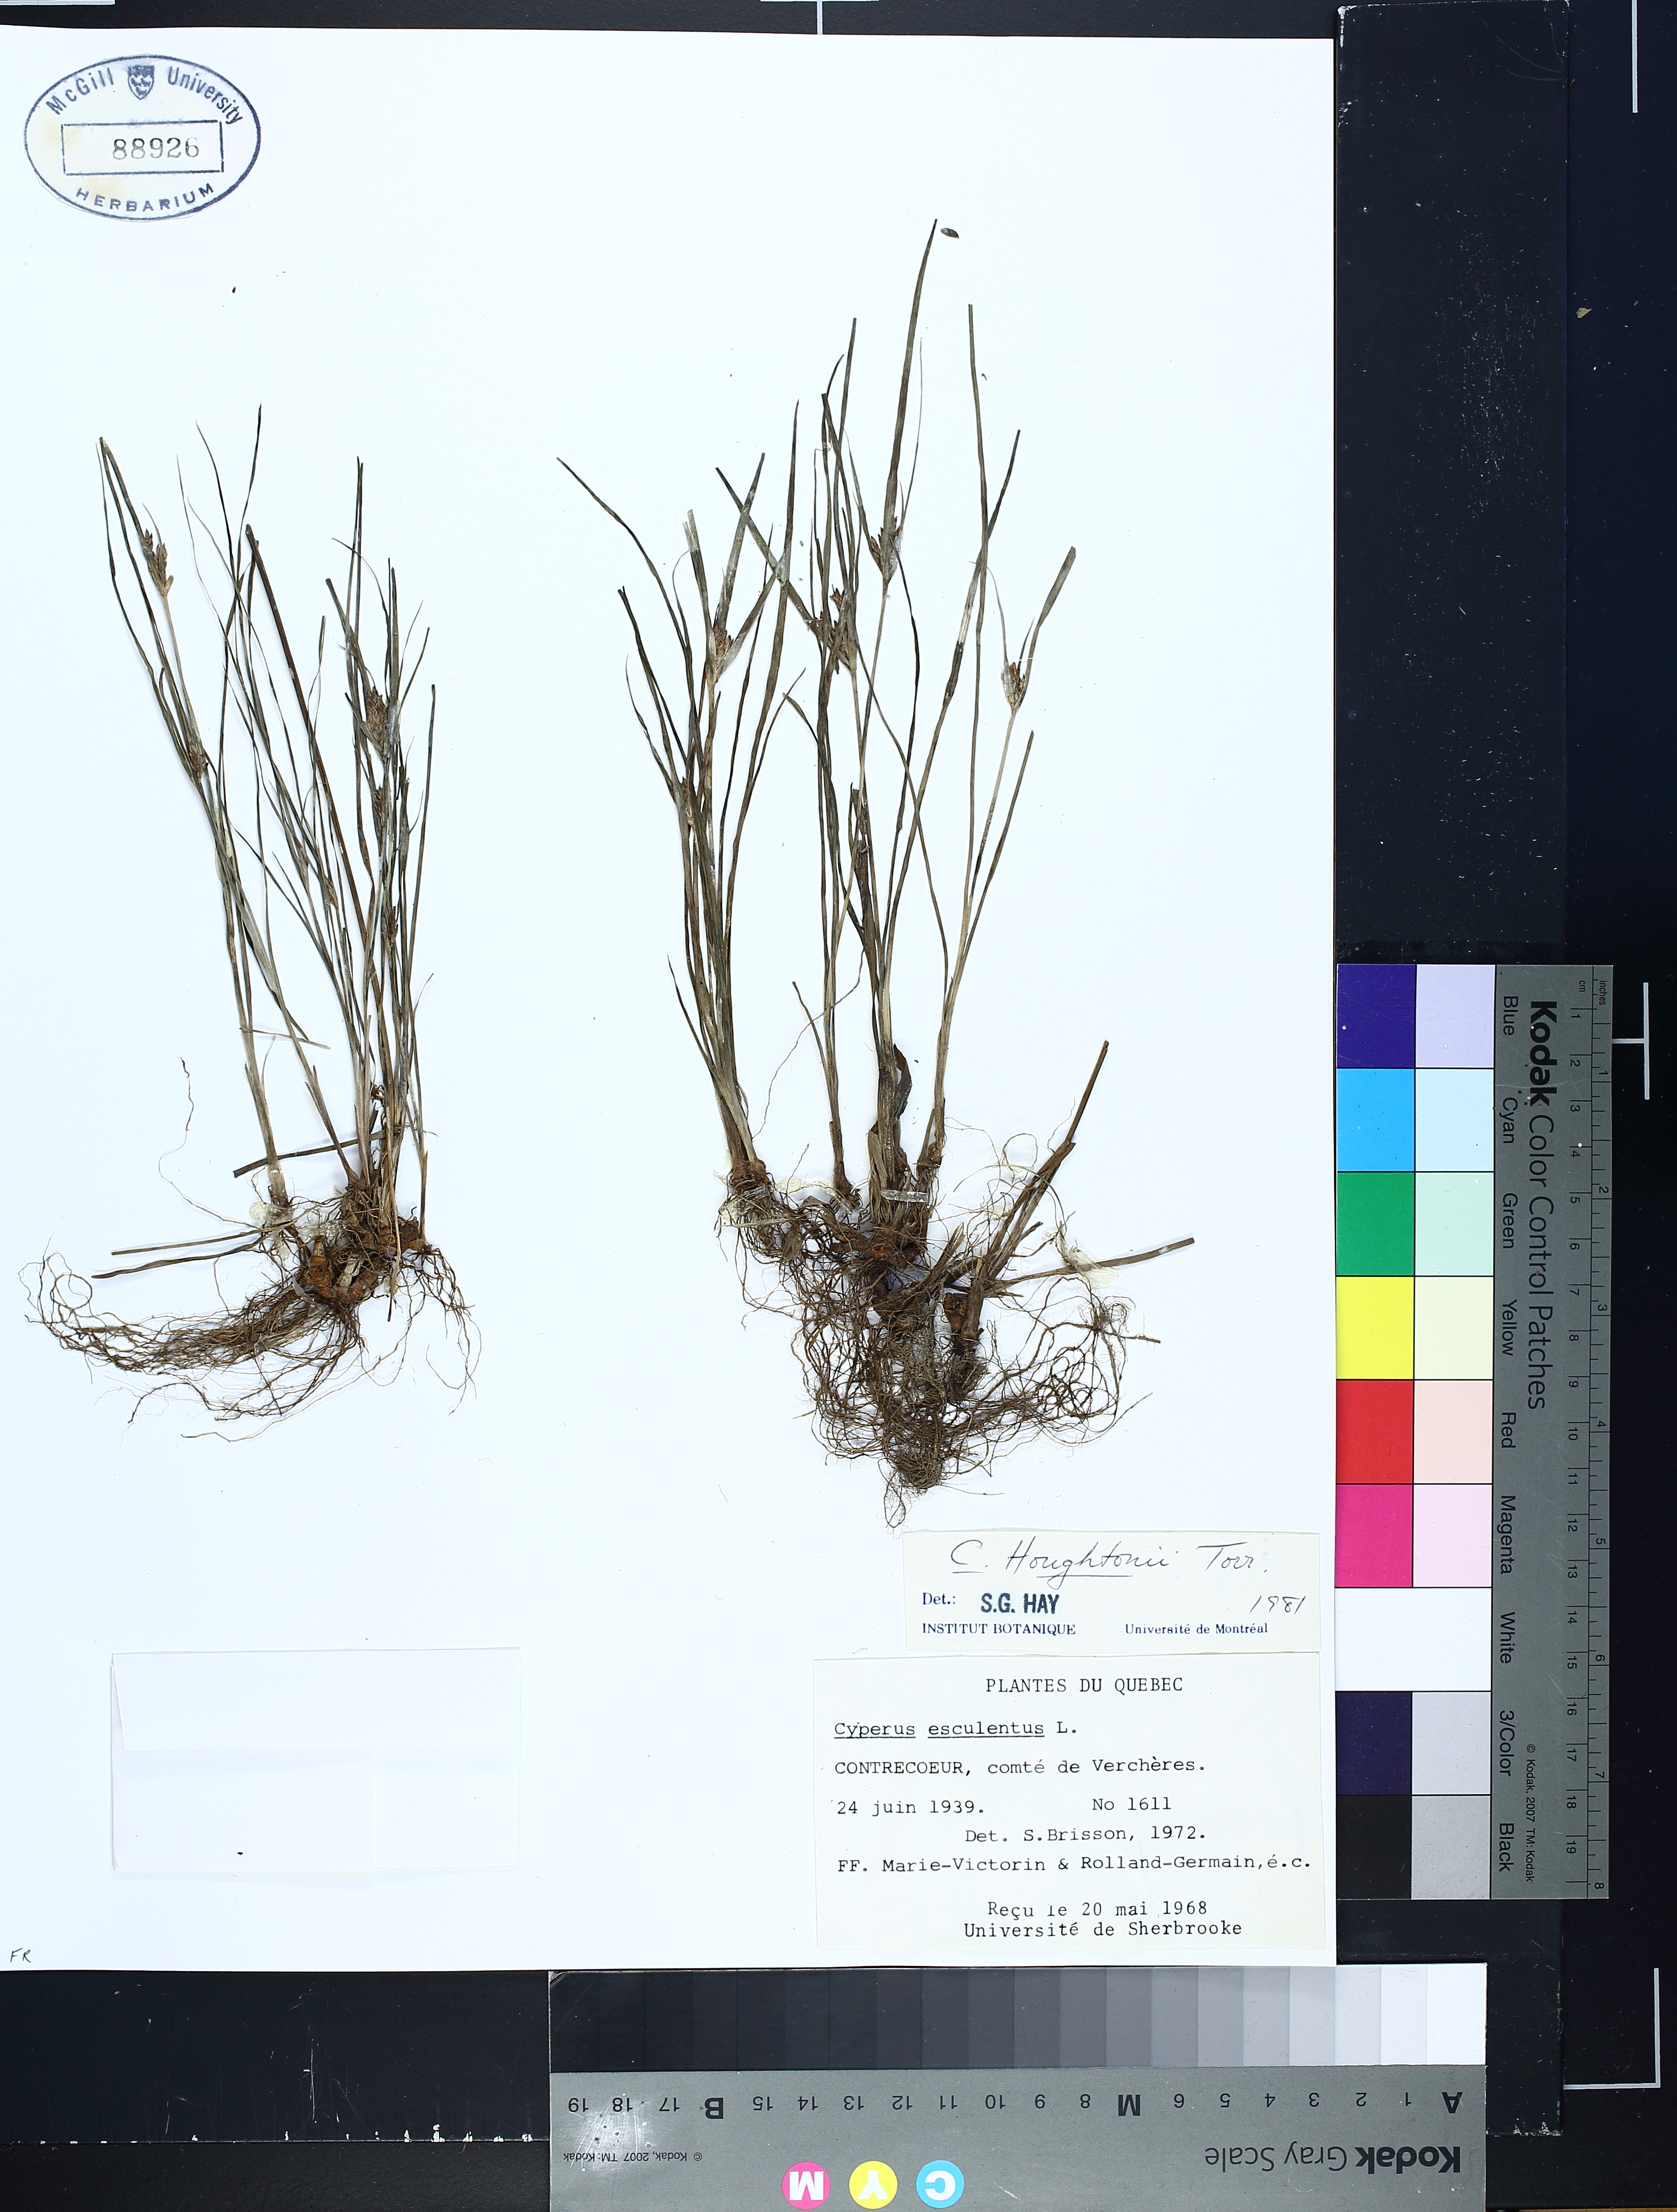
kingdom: Plantae
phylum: Tracheophyta
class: Liliopsida
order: Poales
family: Cyperaceae
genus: Cyperus
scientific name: Cyperus houghtonii
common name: Houghton's cyperus
